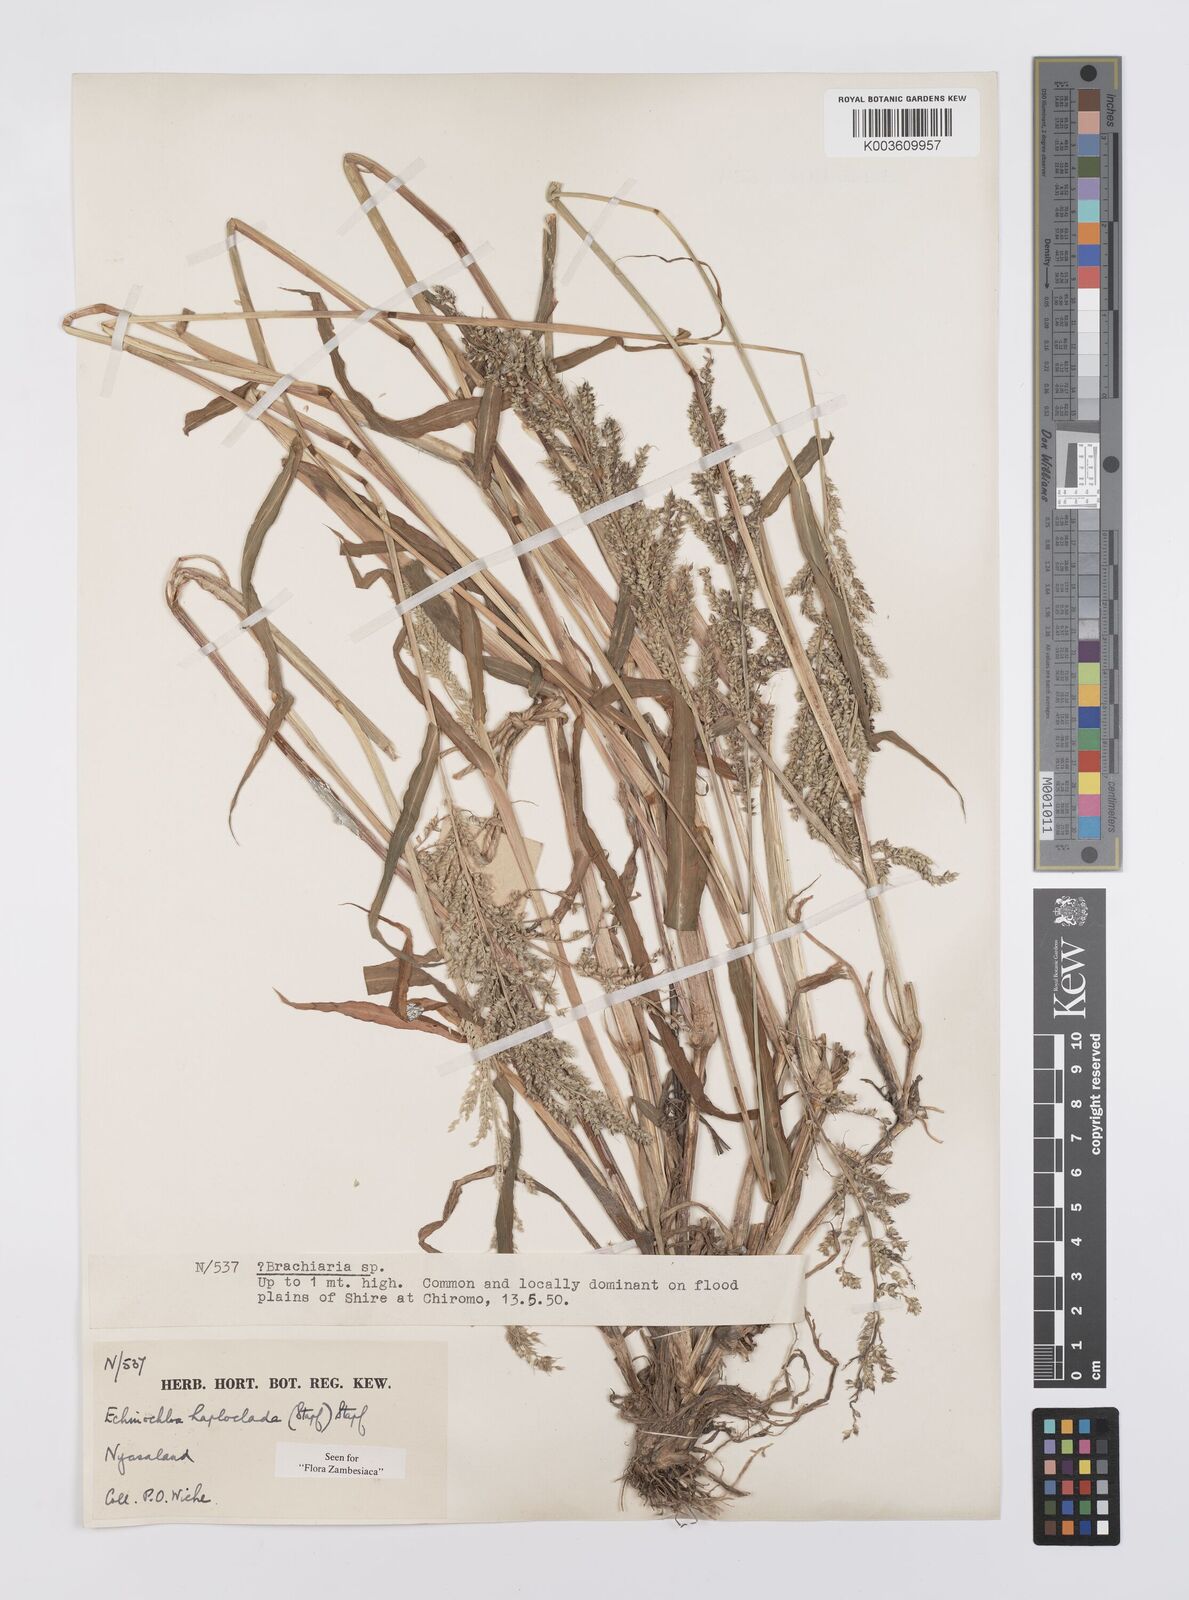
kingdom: Plantae
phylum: Tracheophyta
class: Liliopsida
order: Poales
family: Poaceae
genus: Echinochloa
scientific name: Echinochloa haploclada
